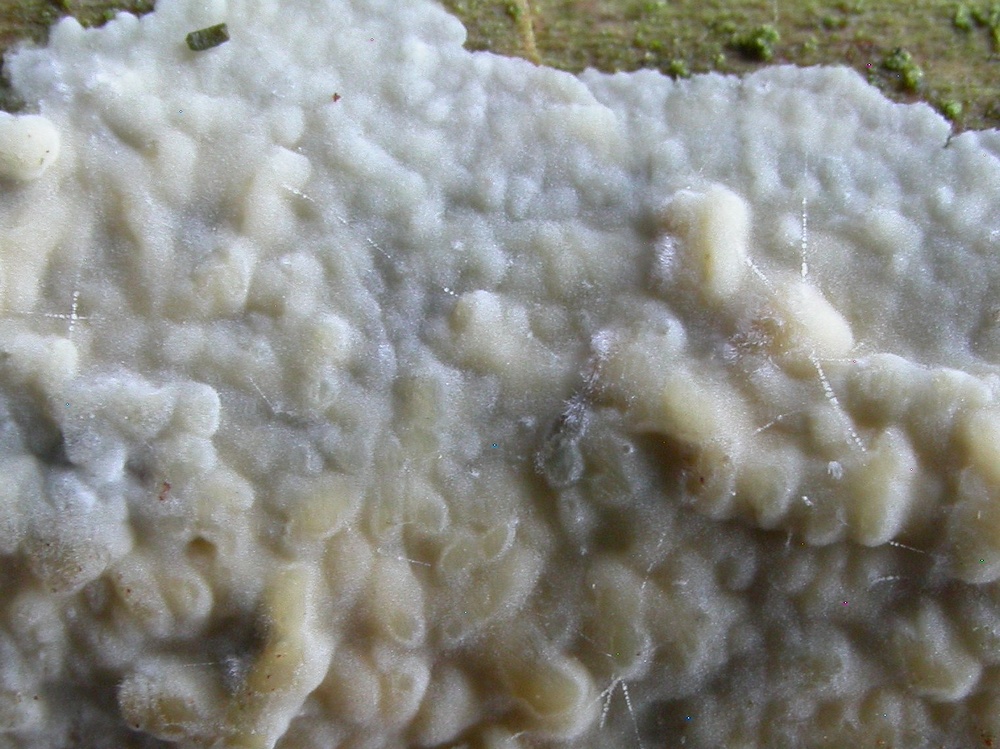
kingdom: Fungi
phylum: Basidiomycota
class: Agaricomycetes
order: Agaricales
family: Radulomycetaceae
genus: Radulomyces
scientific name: Radulomyces confluens
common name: glat naftalinskind
